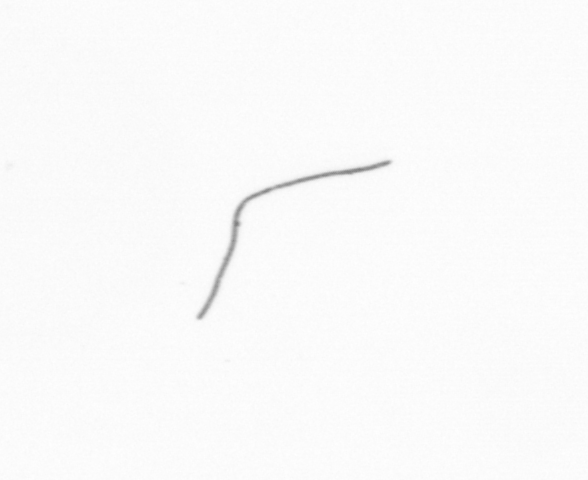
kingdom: Chromista
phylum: Ochrophyta
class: Bacillariophyceae
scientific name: Bacillariophyceae
